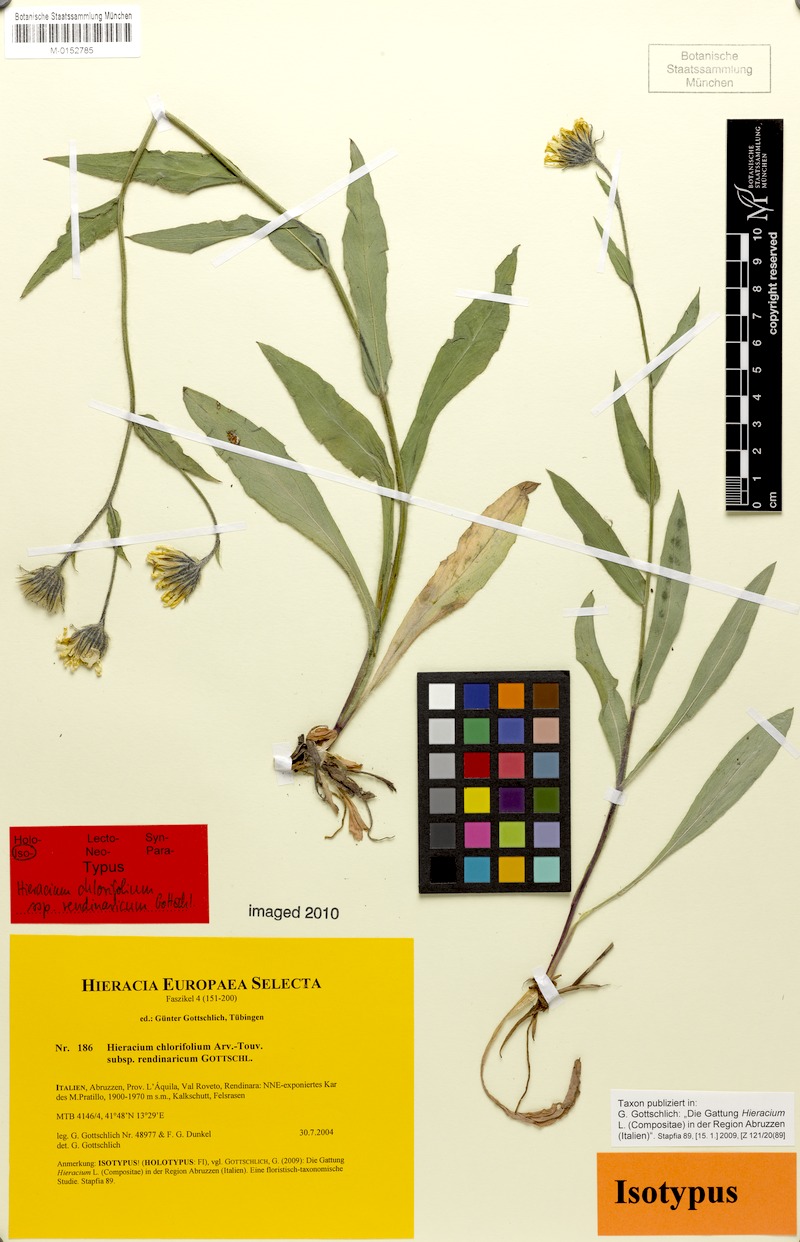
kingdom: Plantae
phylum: Tracheophyta
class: Magnoliopsida
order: Asterales
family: Asteraceae
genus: Hieracium
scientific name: Hieracium chlorifolium
